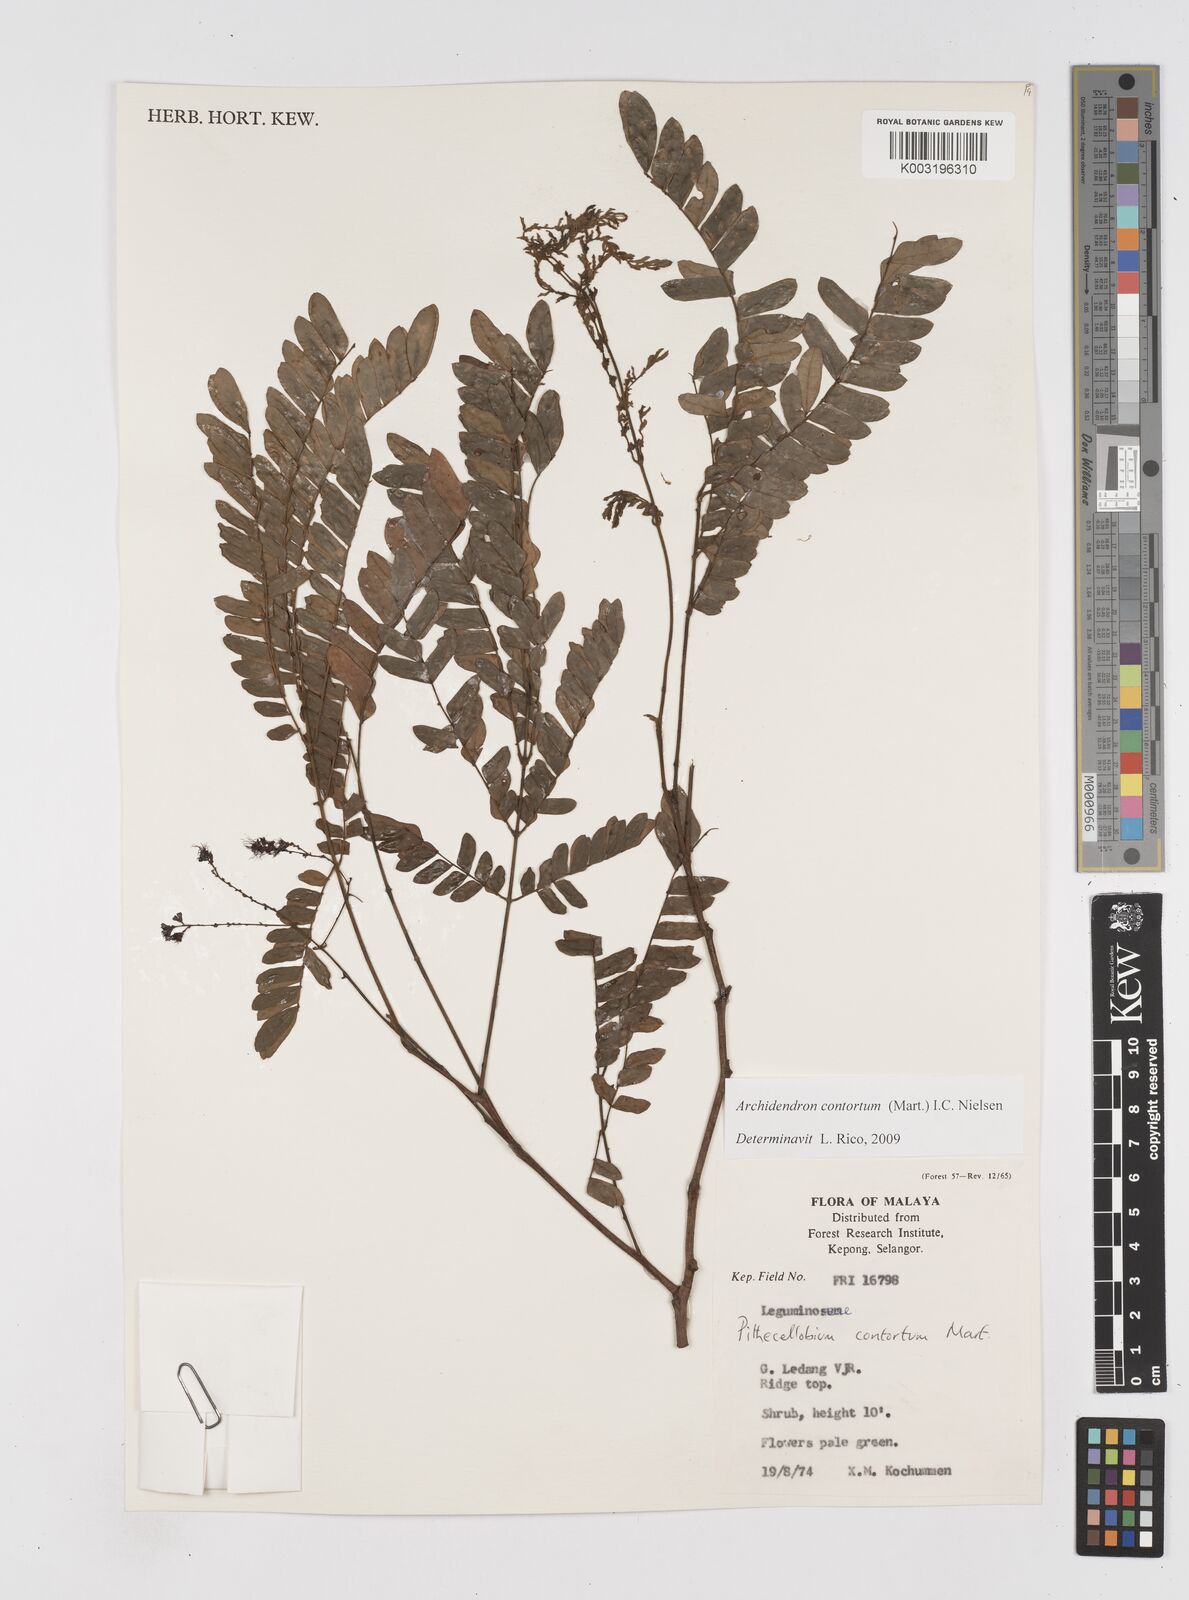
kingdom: Plantae
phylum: Tracheophyta
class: Magnoliopsida
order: Fabales
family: Fabaceae
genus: Archidendron
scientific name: Archidendron contortum
